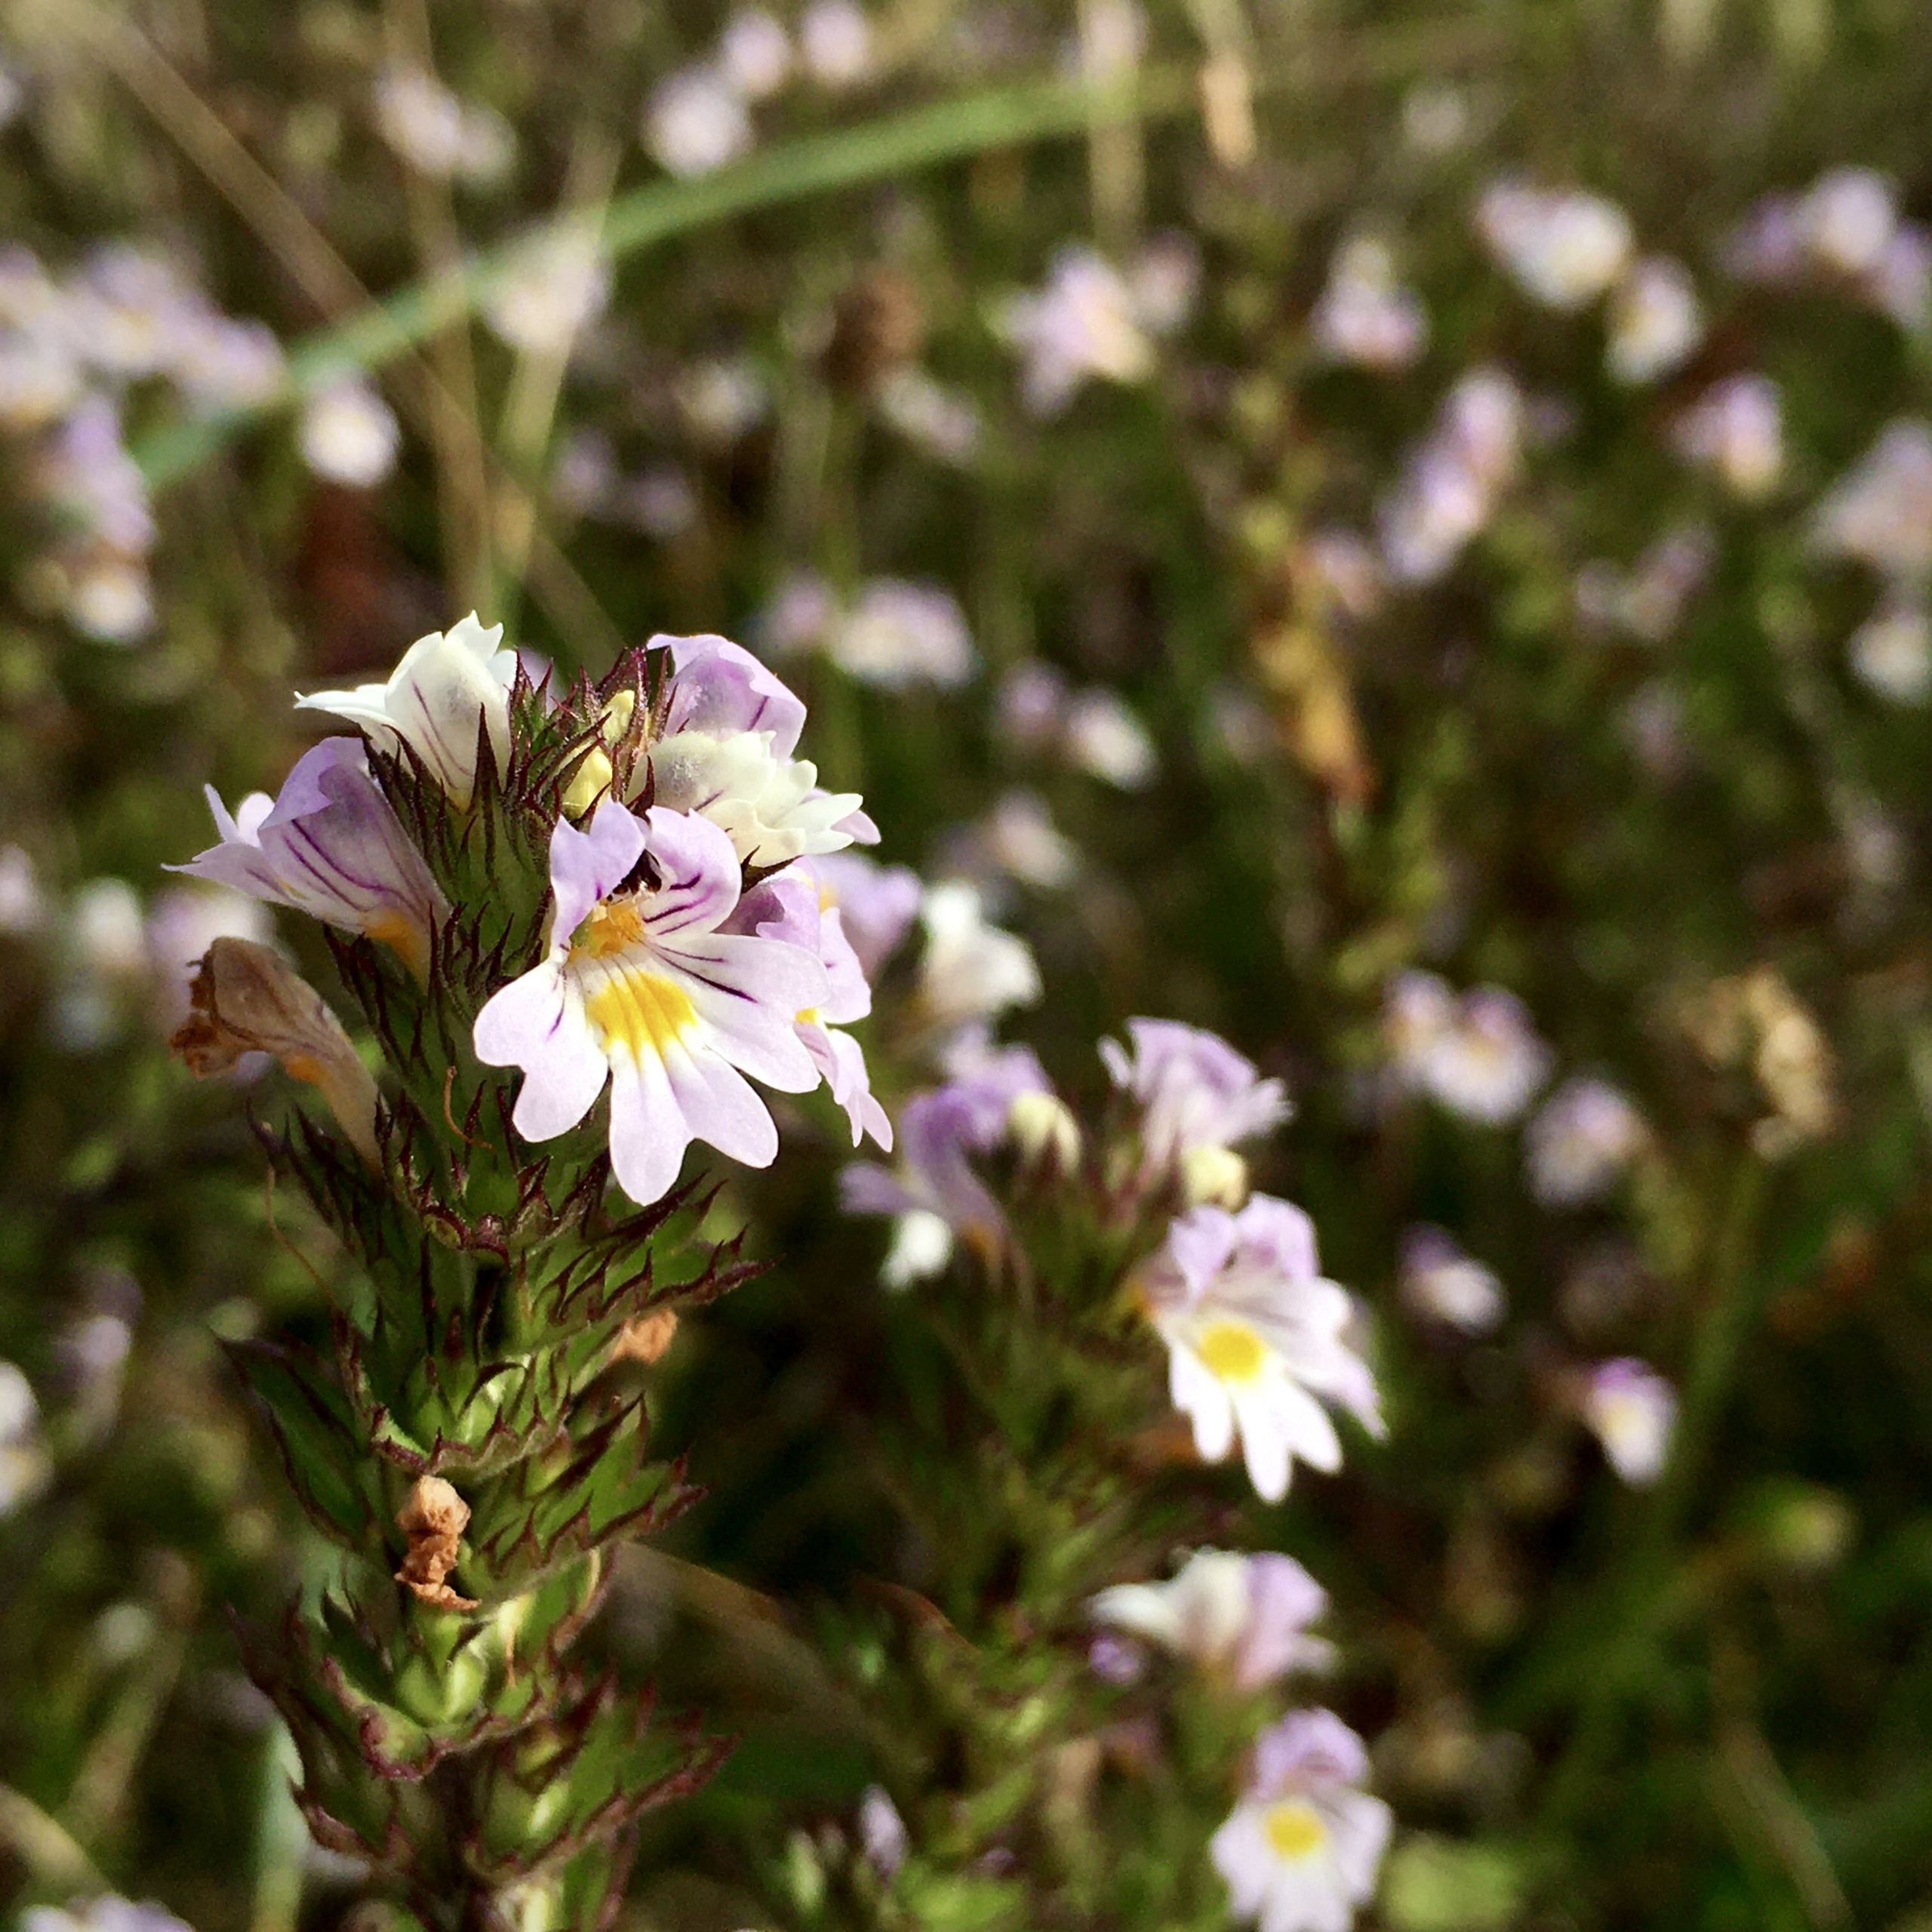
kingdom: Plantae
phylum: Tracheophyta
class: Magnoliopsida
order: Lamiales
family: Orobanchaceae
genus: Euphrasia
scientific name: Euphrasia stricta
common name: Spids øjentrøst
